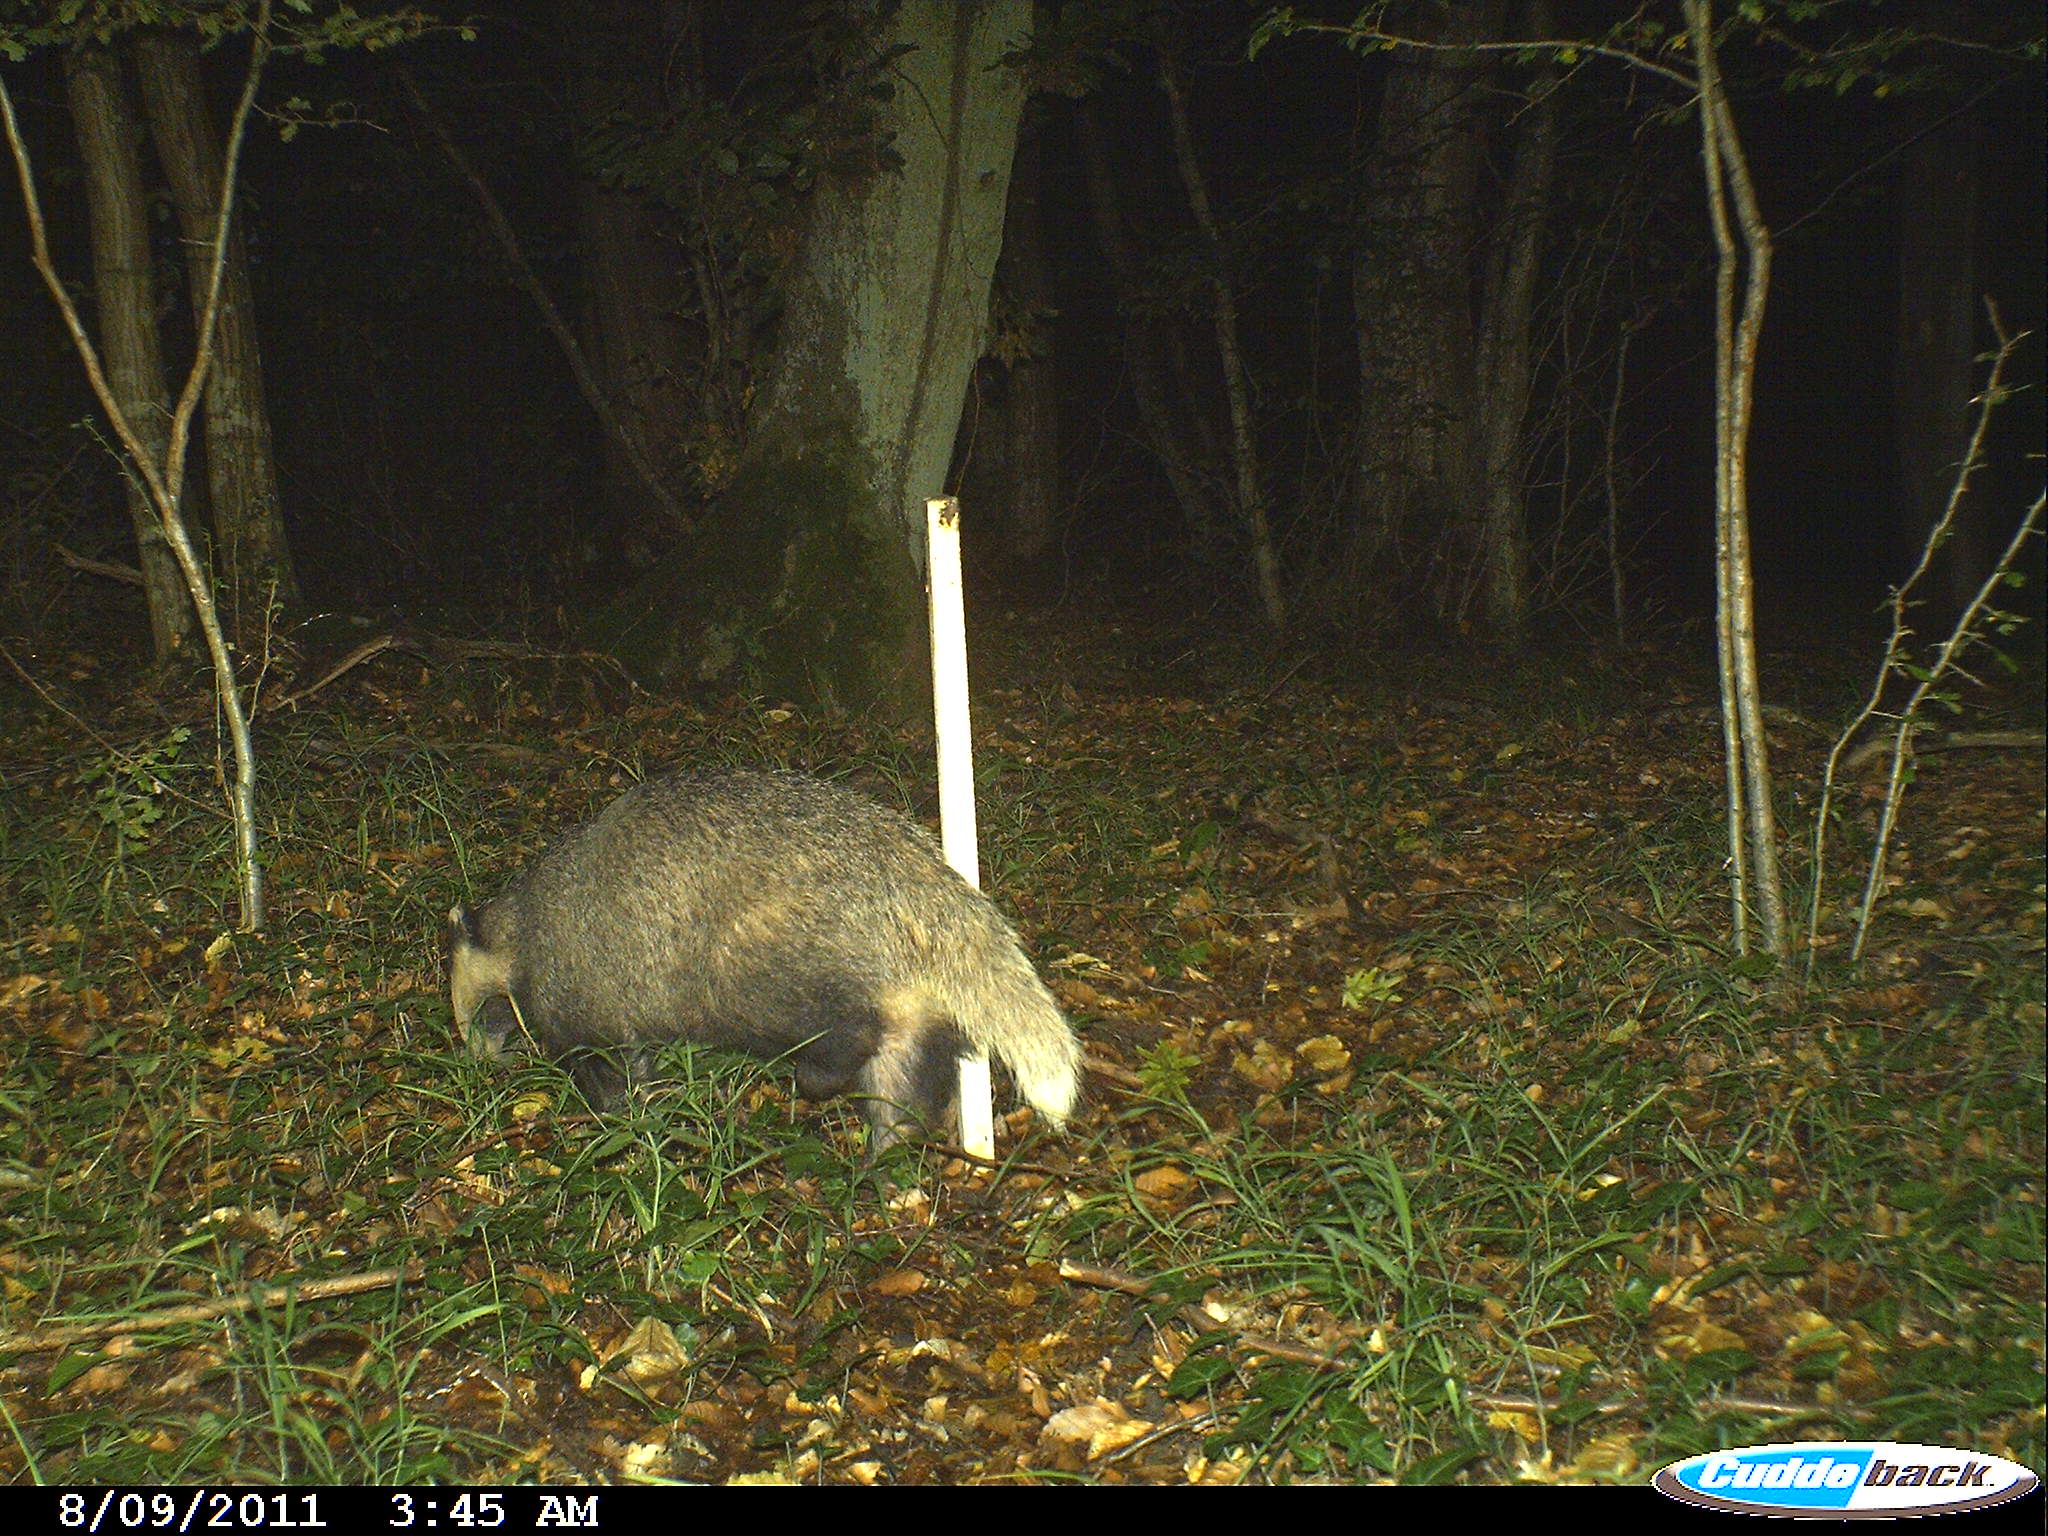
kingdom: Animalia
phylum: Chordata
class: Mammalia
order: Carnivora
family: Mustelidae
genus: Meles
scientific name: Meles meles
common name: Eurasian badger
